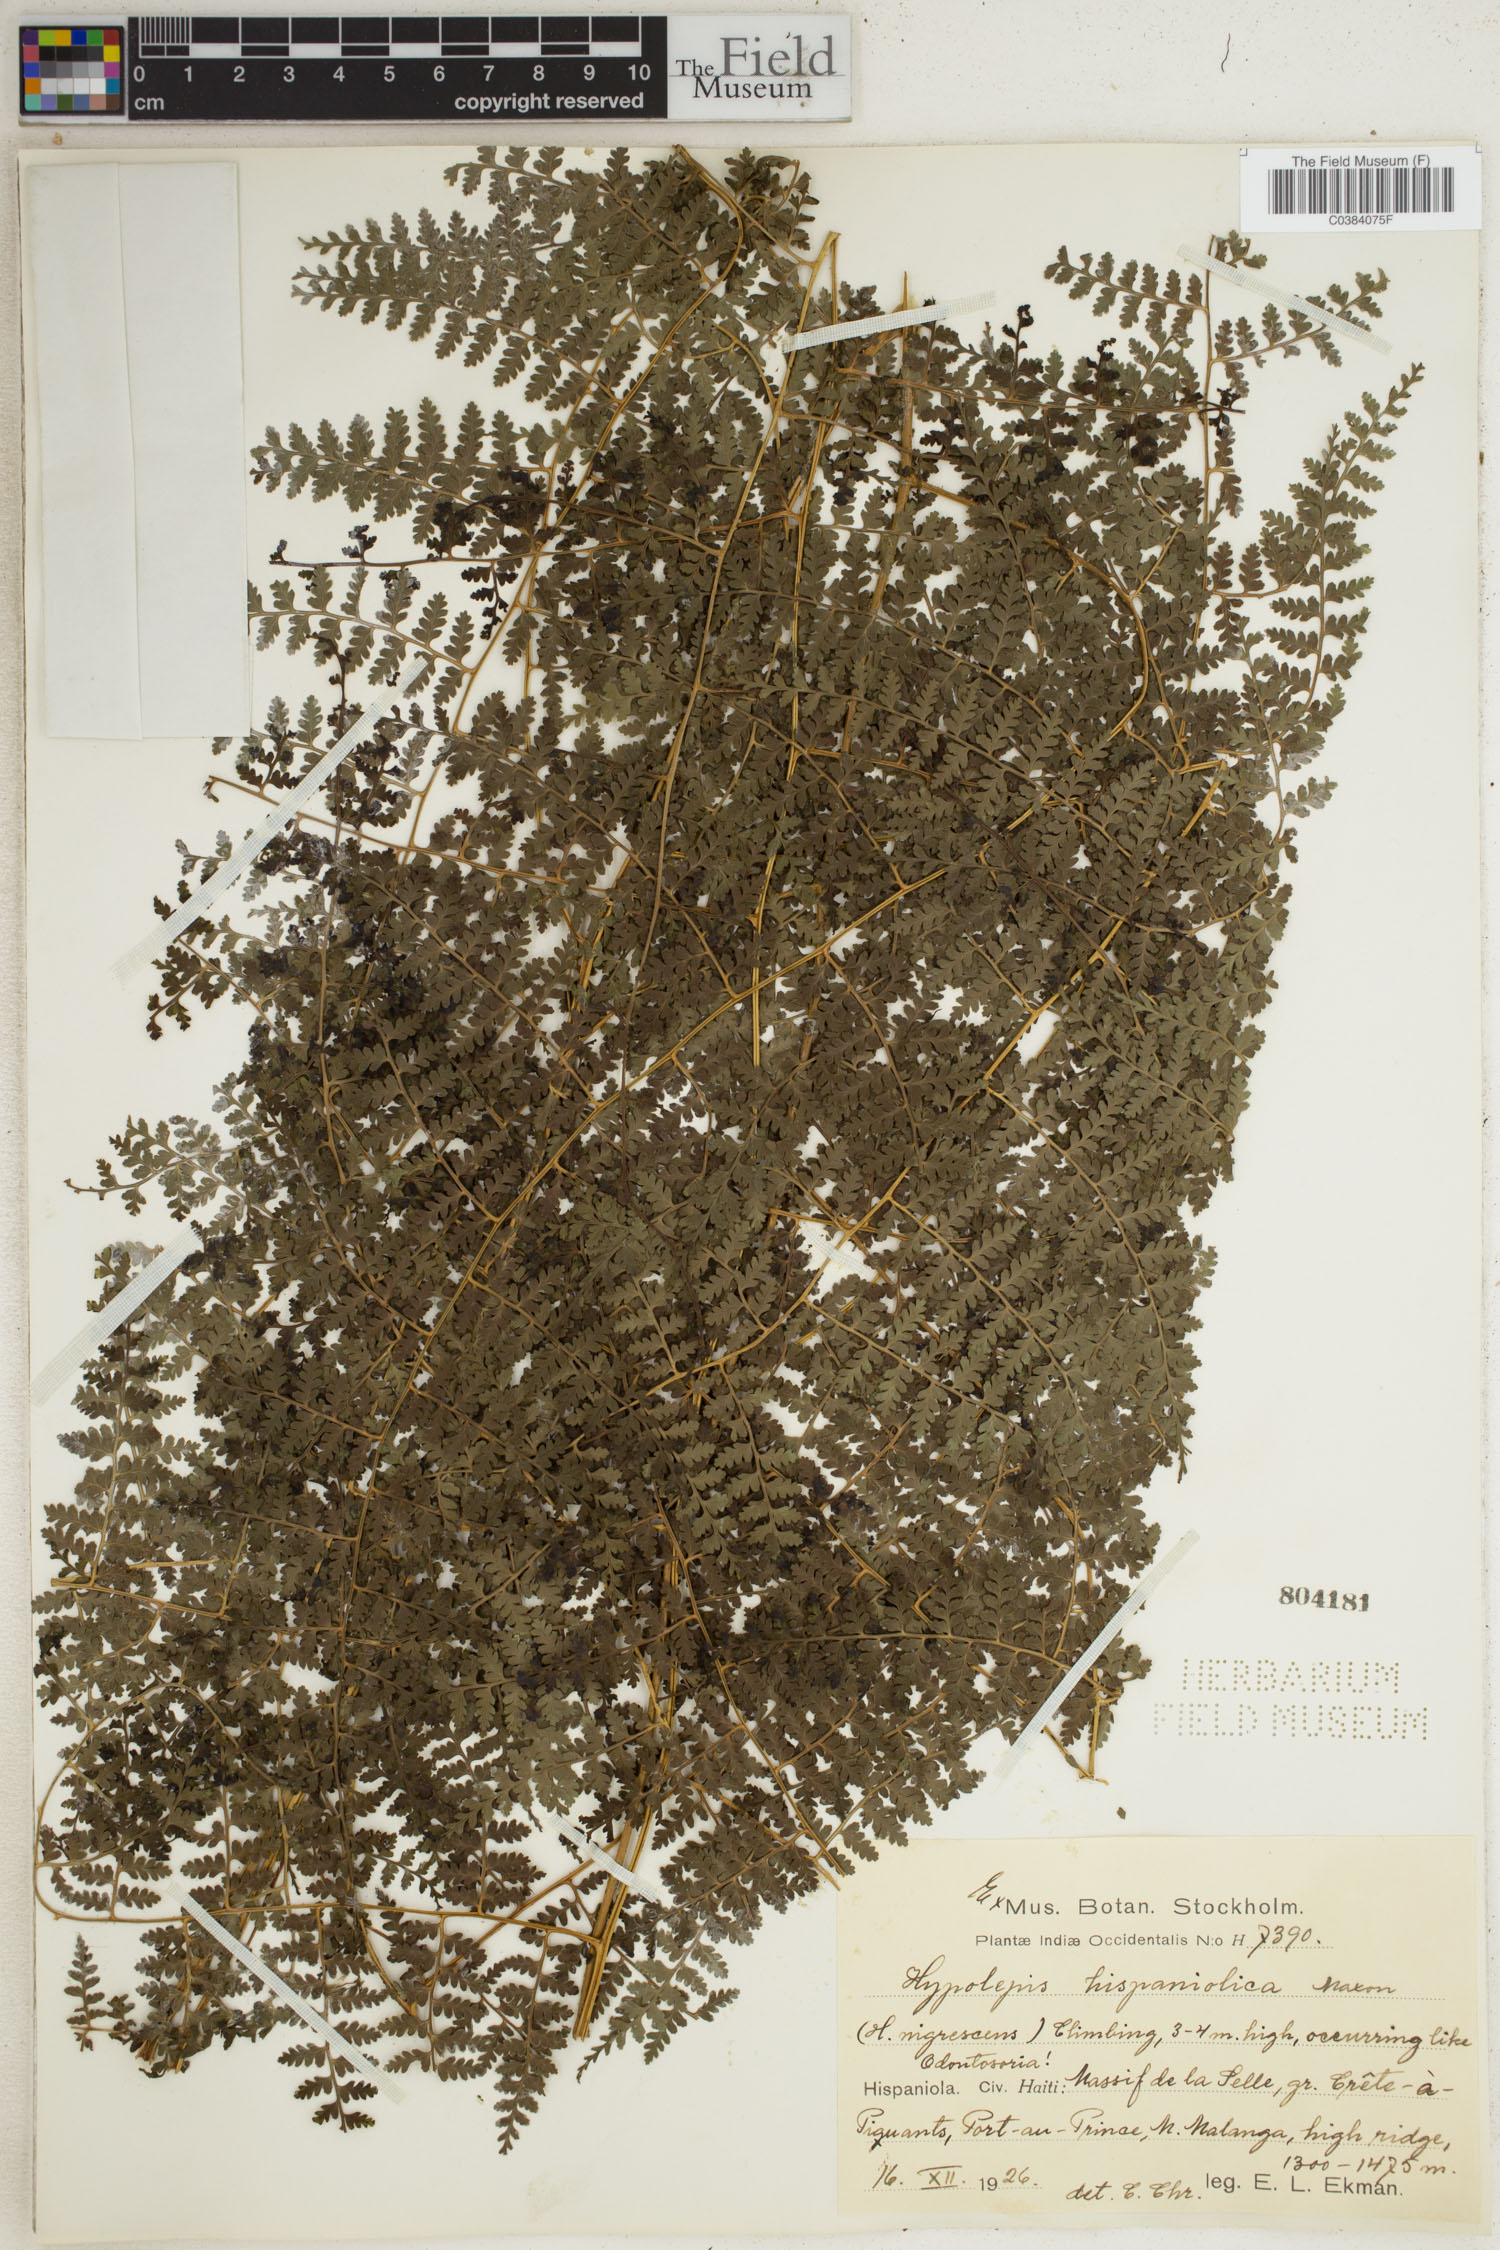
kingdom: Plantae
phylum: Tracheophyta
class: Polypodiopsida
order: Polypodiales
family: Dennstaedtiaceae
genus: Hiya
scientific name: Hiya nigrescens
